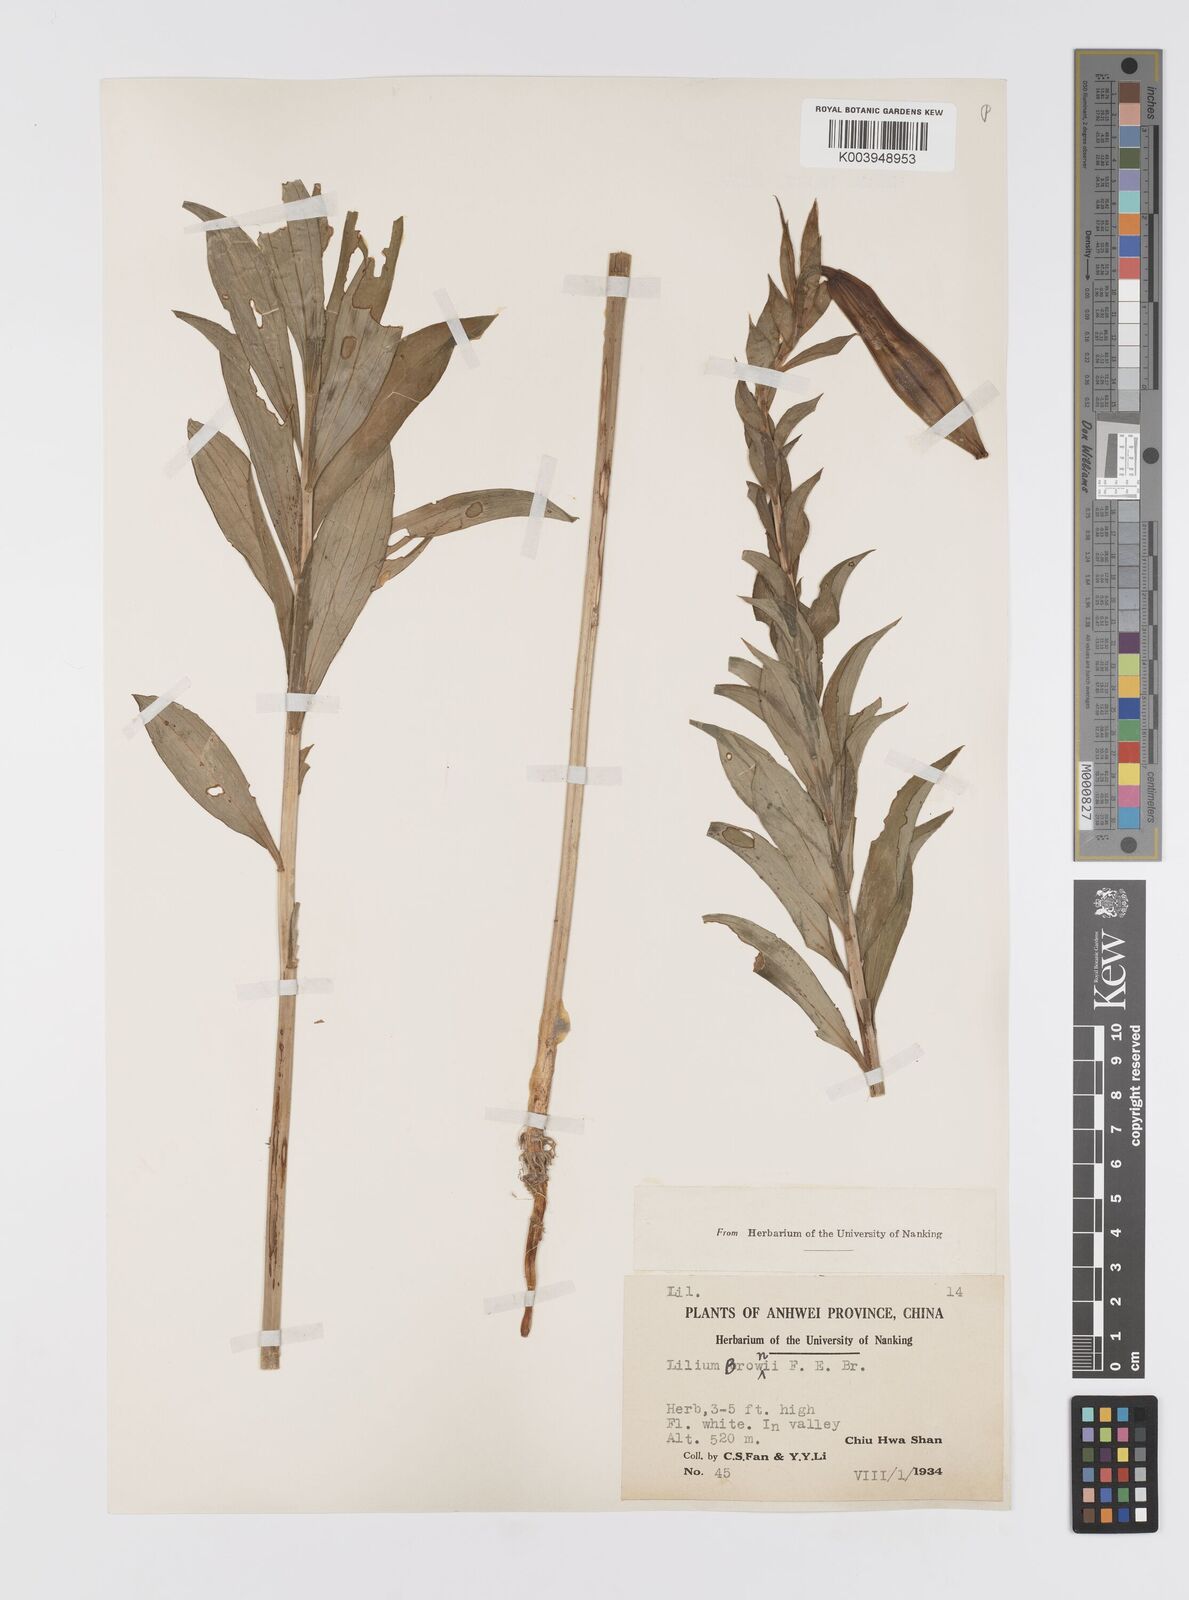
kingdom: Plantae
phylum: Tracheophyta
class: Liliopsida
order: Liliales
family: Liliaceae
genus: Lilium
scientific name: Lilium japonicum
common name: Japanese lily
